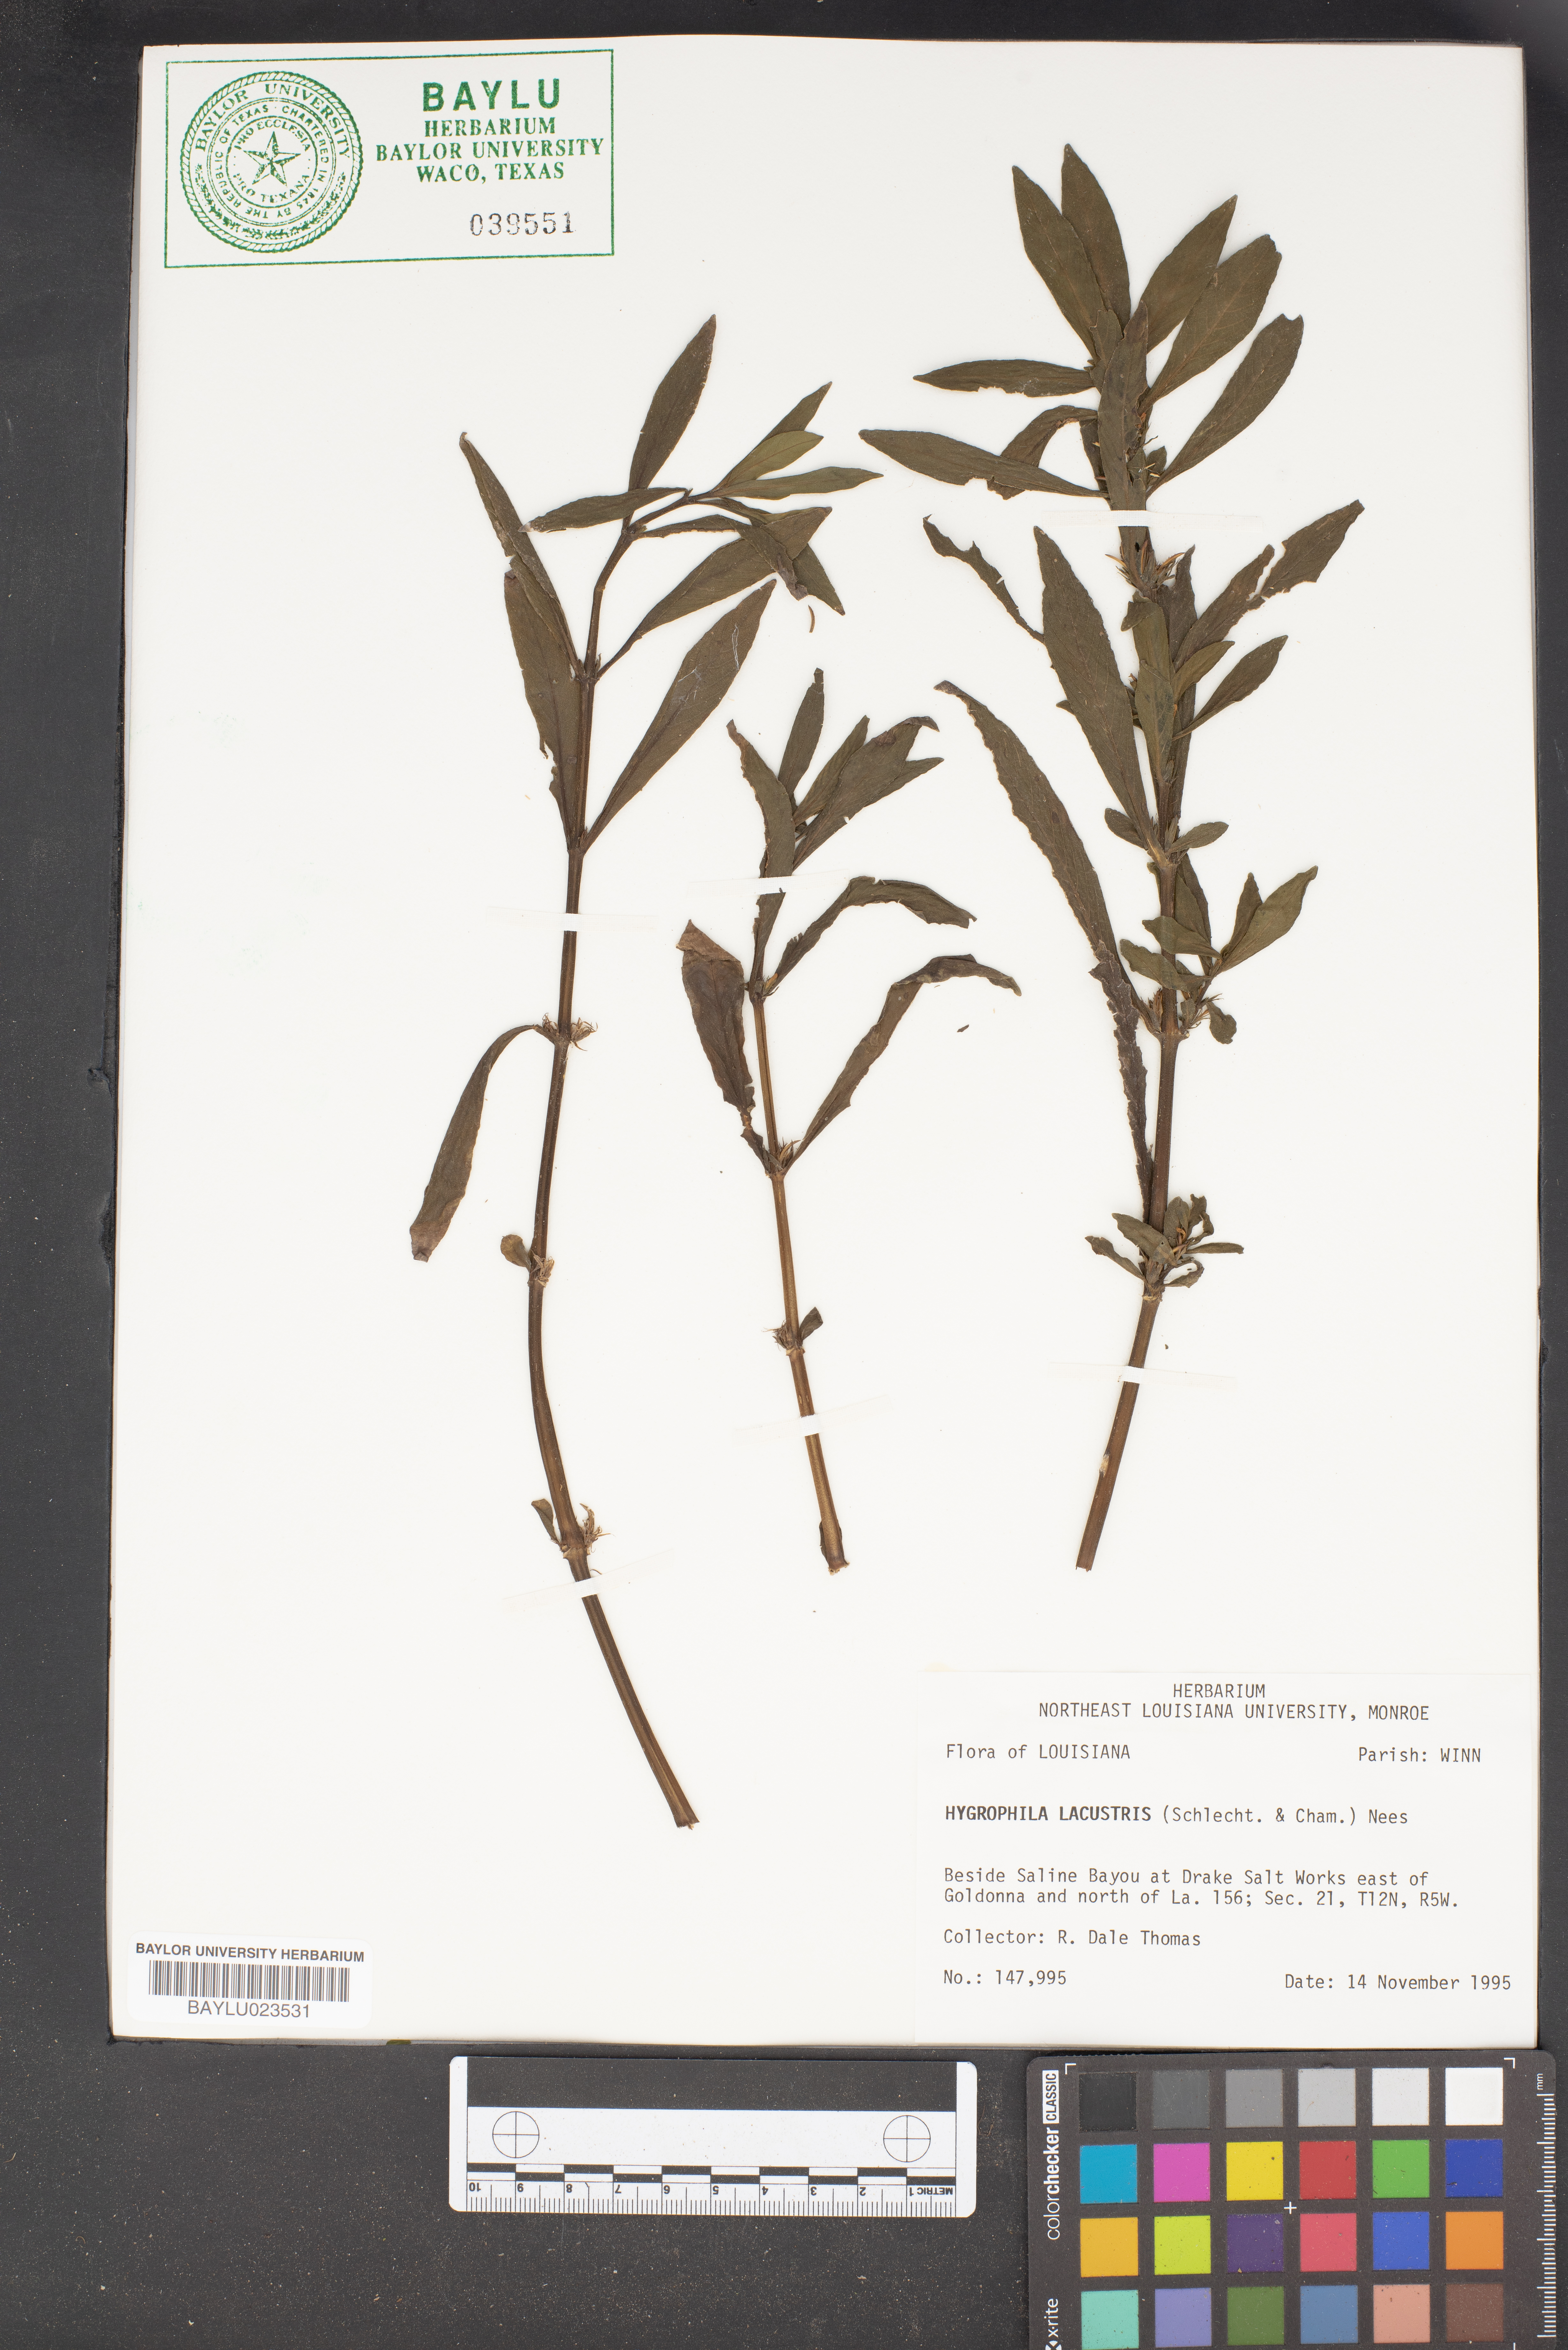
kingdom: Plantae
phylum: Tracheophyta
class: Magnoliopsida
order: Lamiales
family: Acanthaceae
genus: Hygrophila
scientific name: Hygrophila costata
